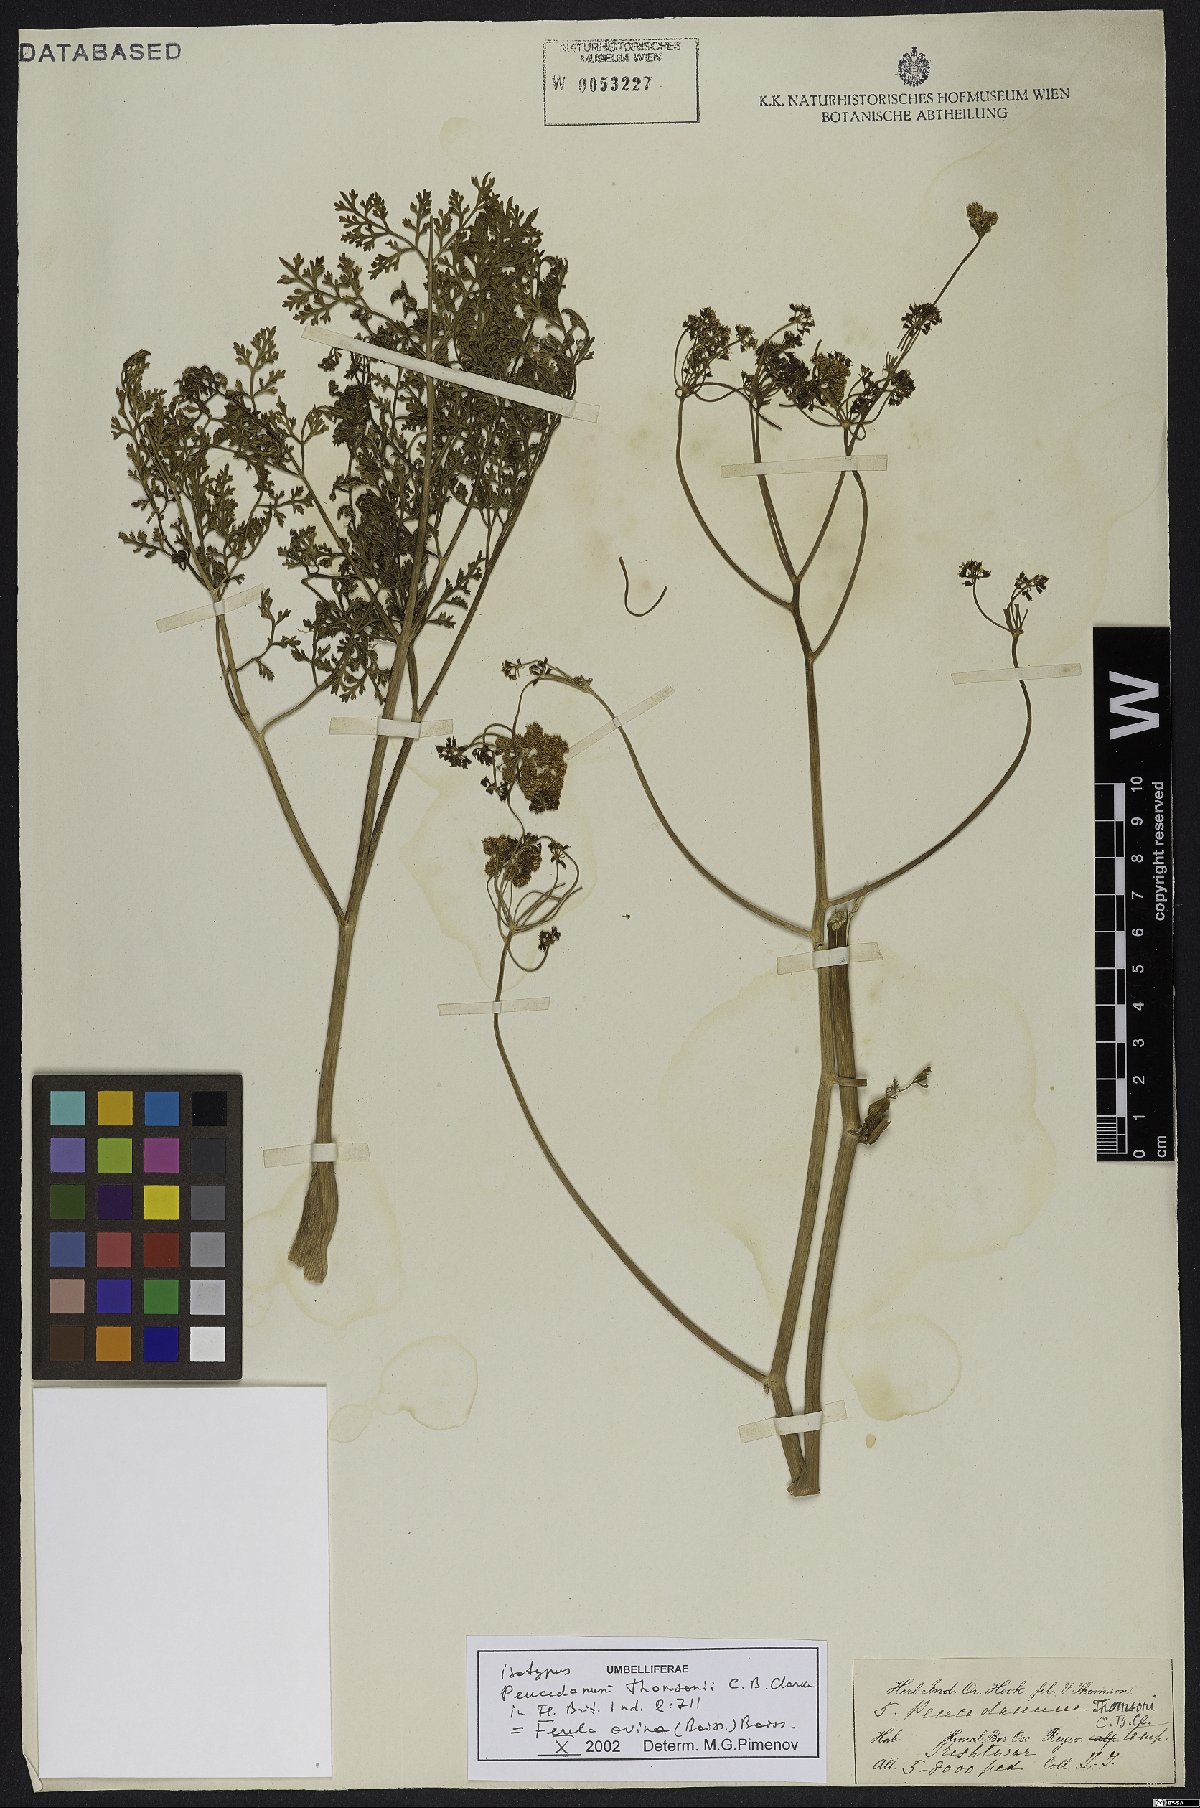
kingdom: Plantae
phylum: Tracheophyta
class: Magnoliopsida
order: Apiales
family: Apiaceae
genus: Ferula
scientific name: Ferula ovina
